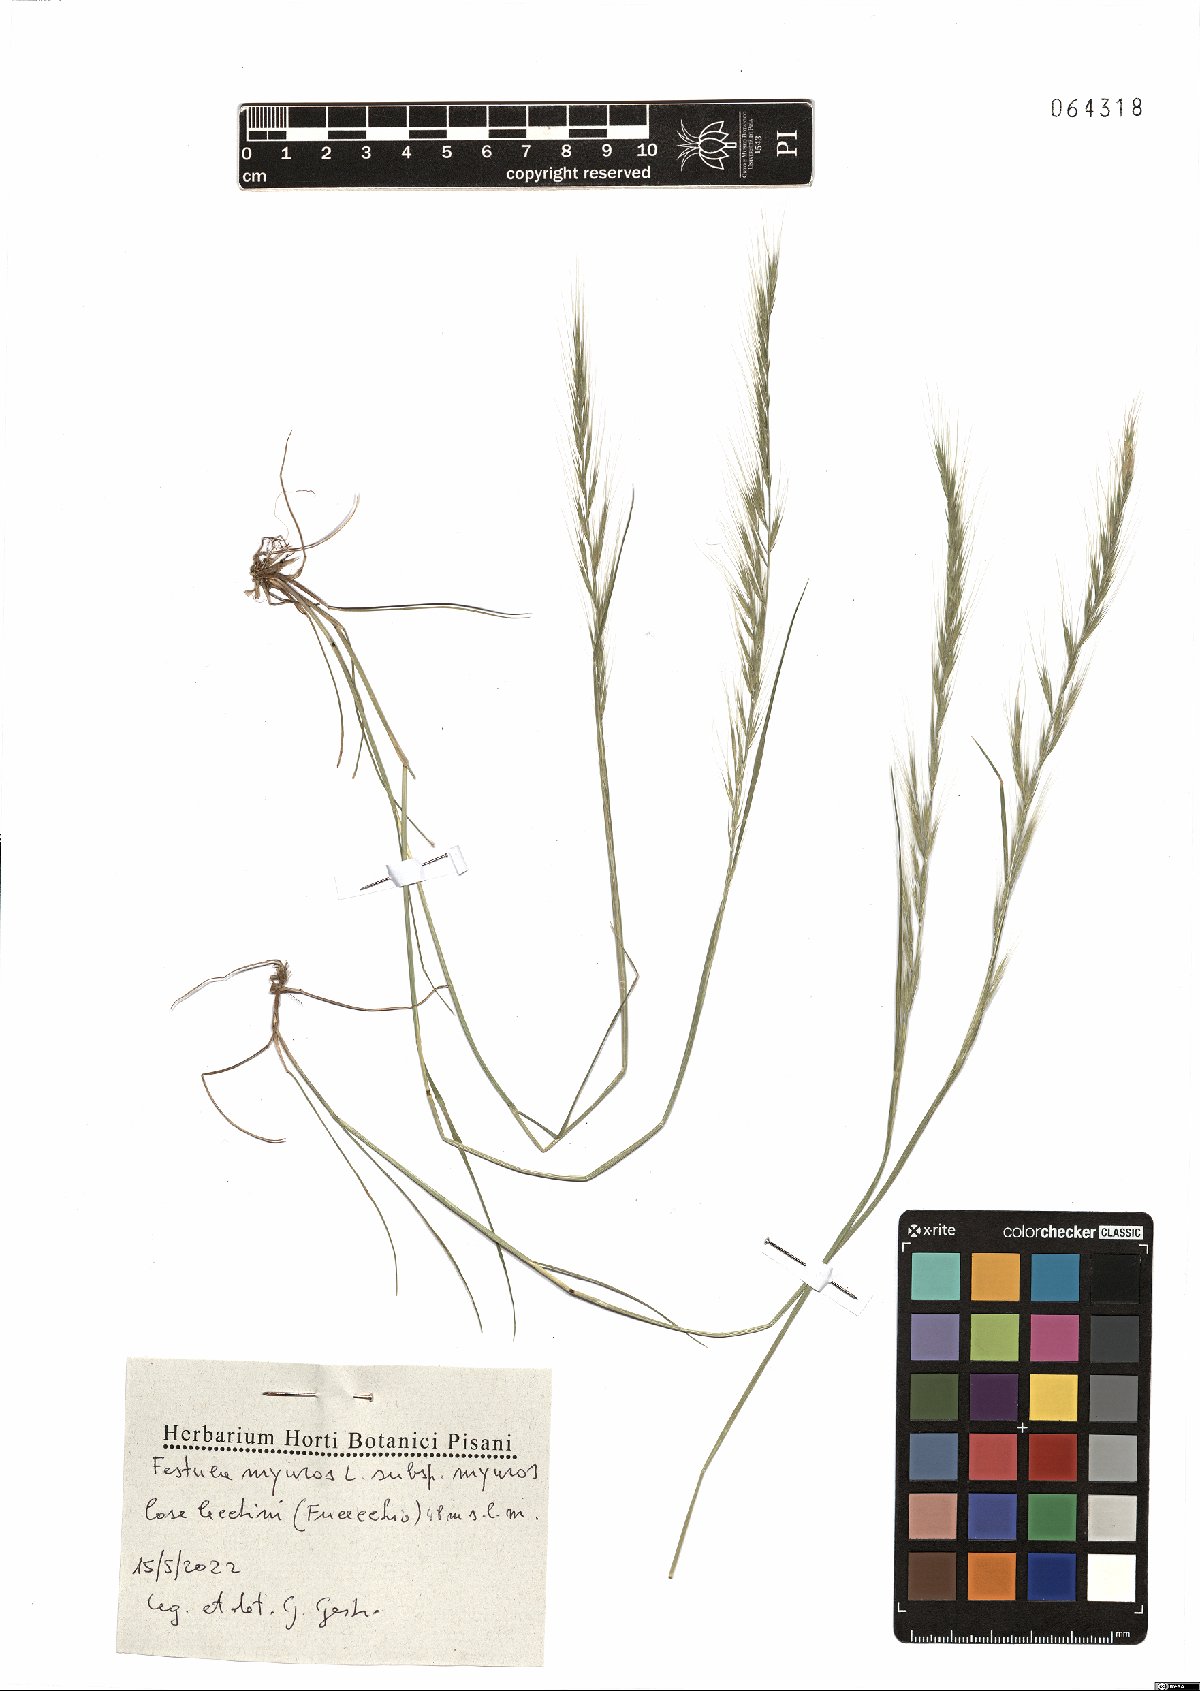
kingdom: Plantae
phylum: Tracheophyta
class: Liliopsida
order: Poales
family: Poaceae
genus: Festuca
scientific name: Festuca myuros
